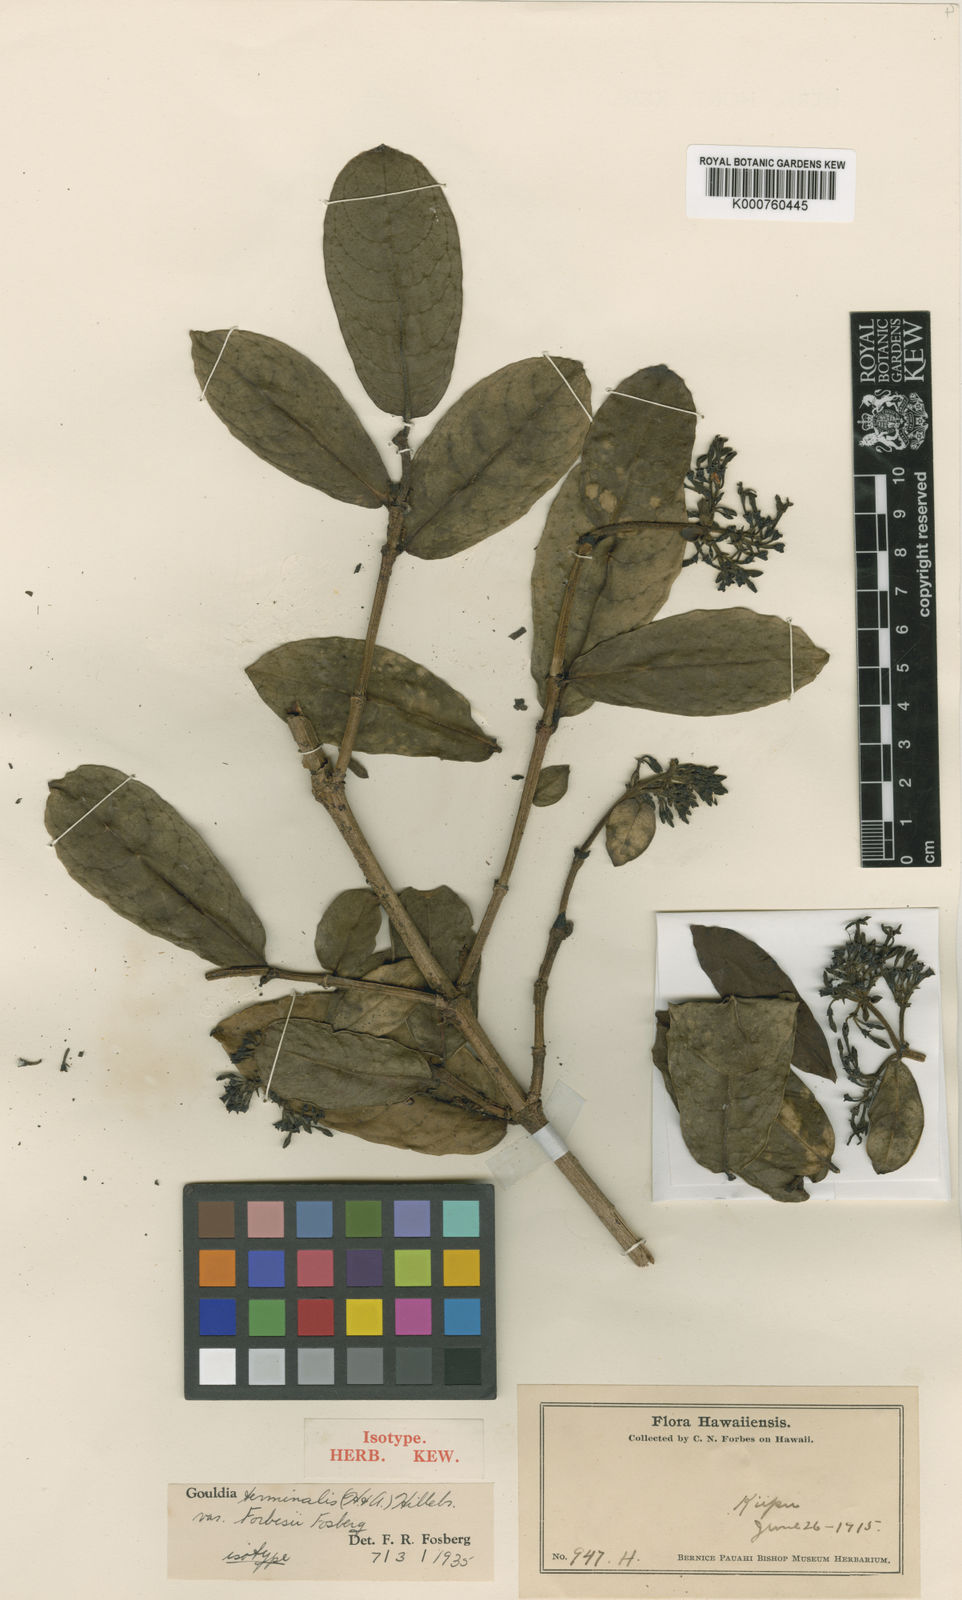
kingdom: Plantae
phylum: Tracheophyta
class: Magnoliopsida
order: Gentianales
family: Rubiaceae
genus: Kadua
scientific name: Kadua affinis
